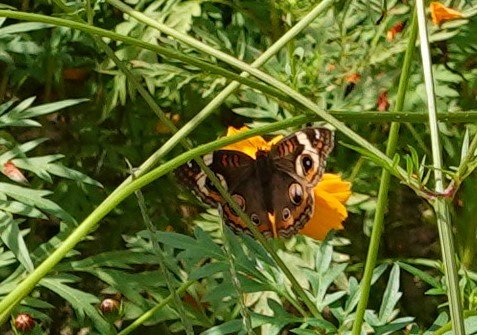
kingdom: Animalia
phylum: Arthropoda
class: Insecta
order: Lepidoptera
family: Nymphalidae
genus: Junonia
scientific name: Junonia coenia
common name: Common Buckeye
